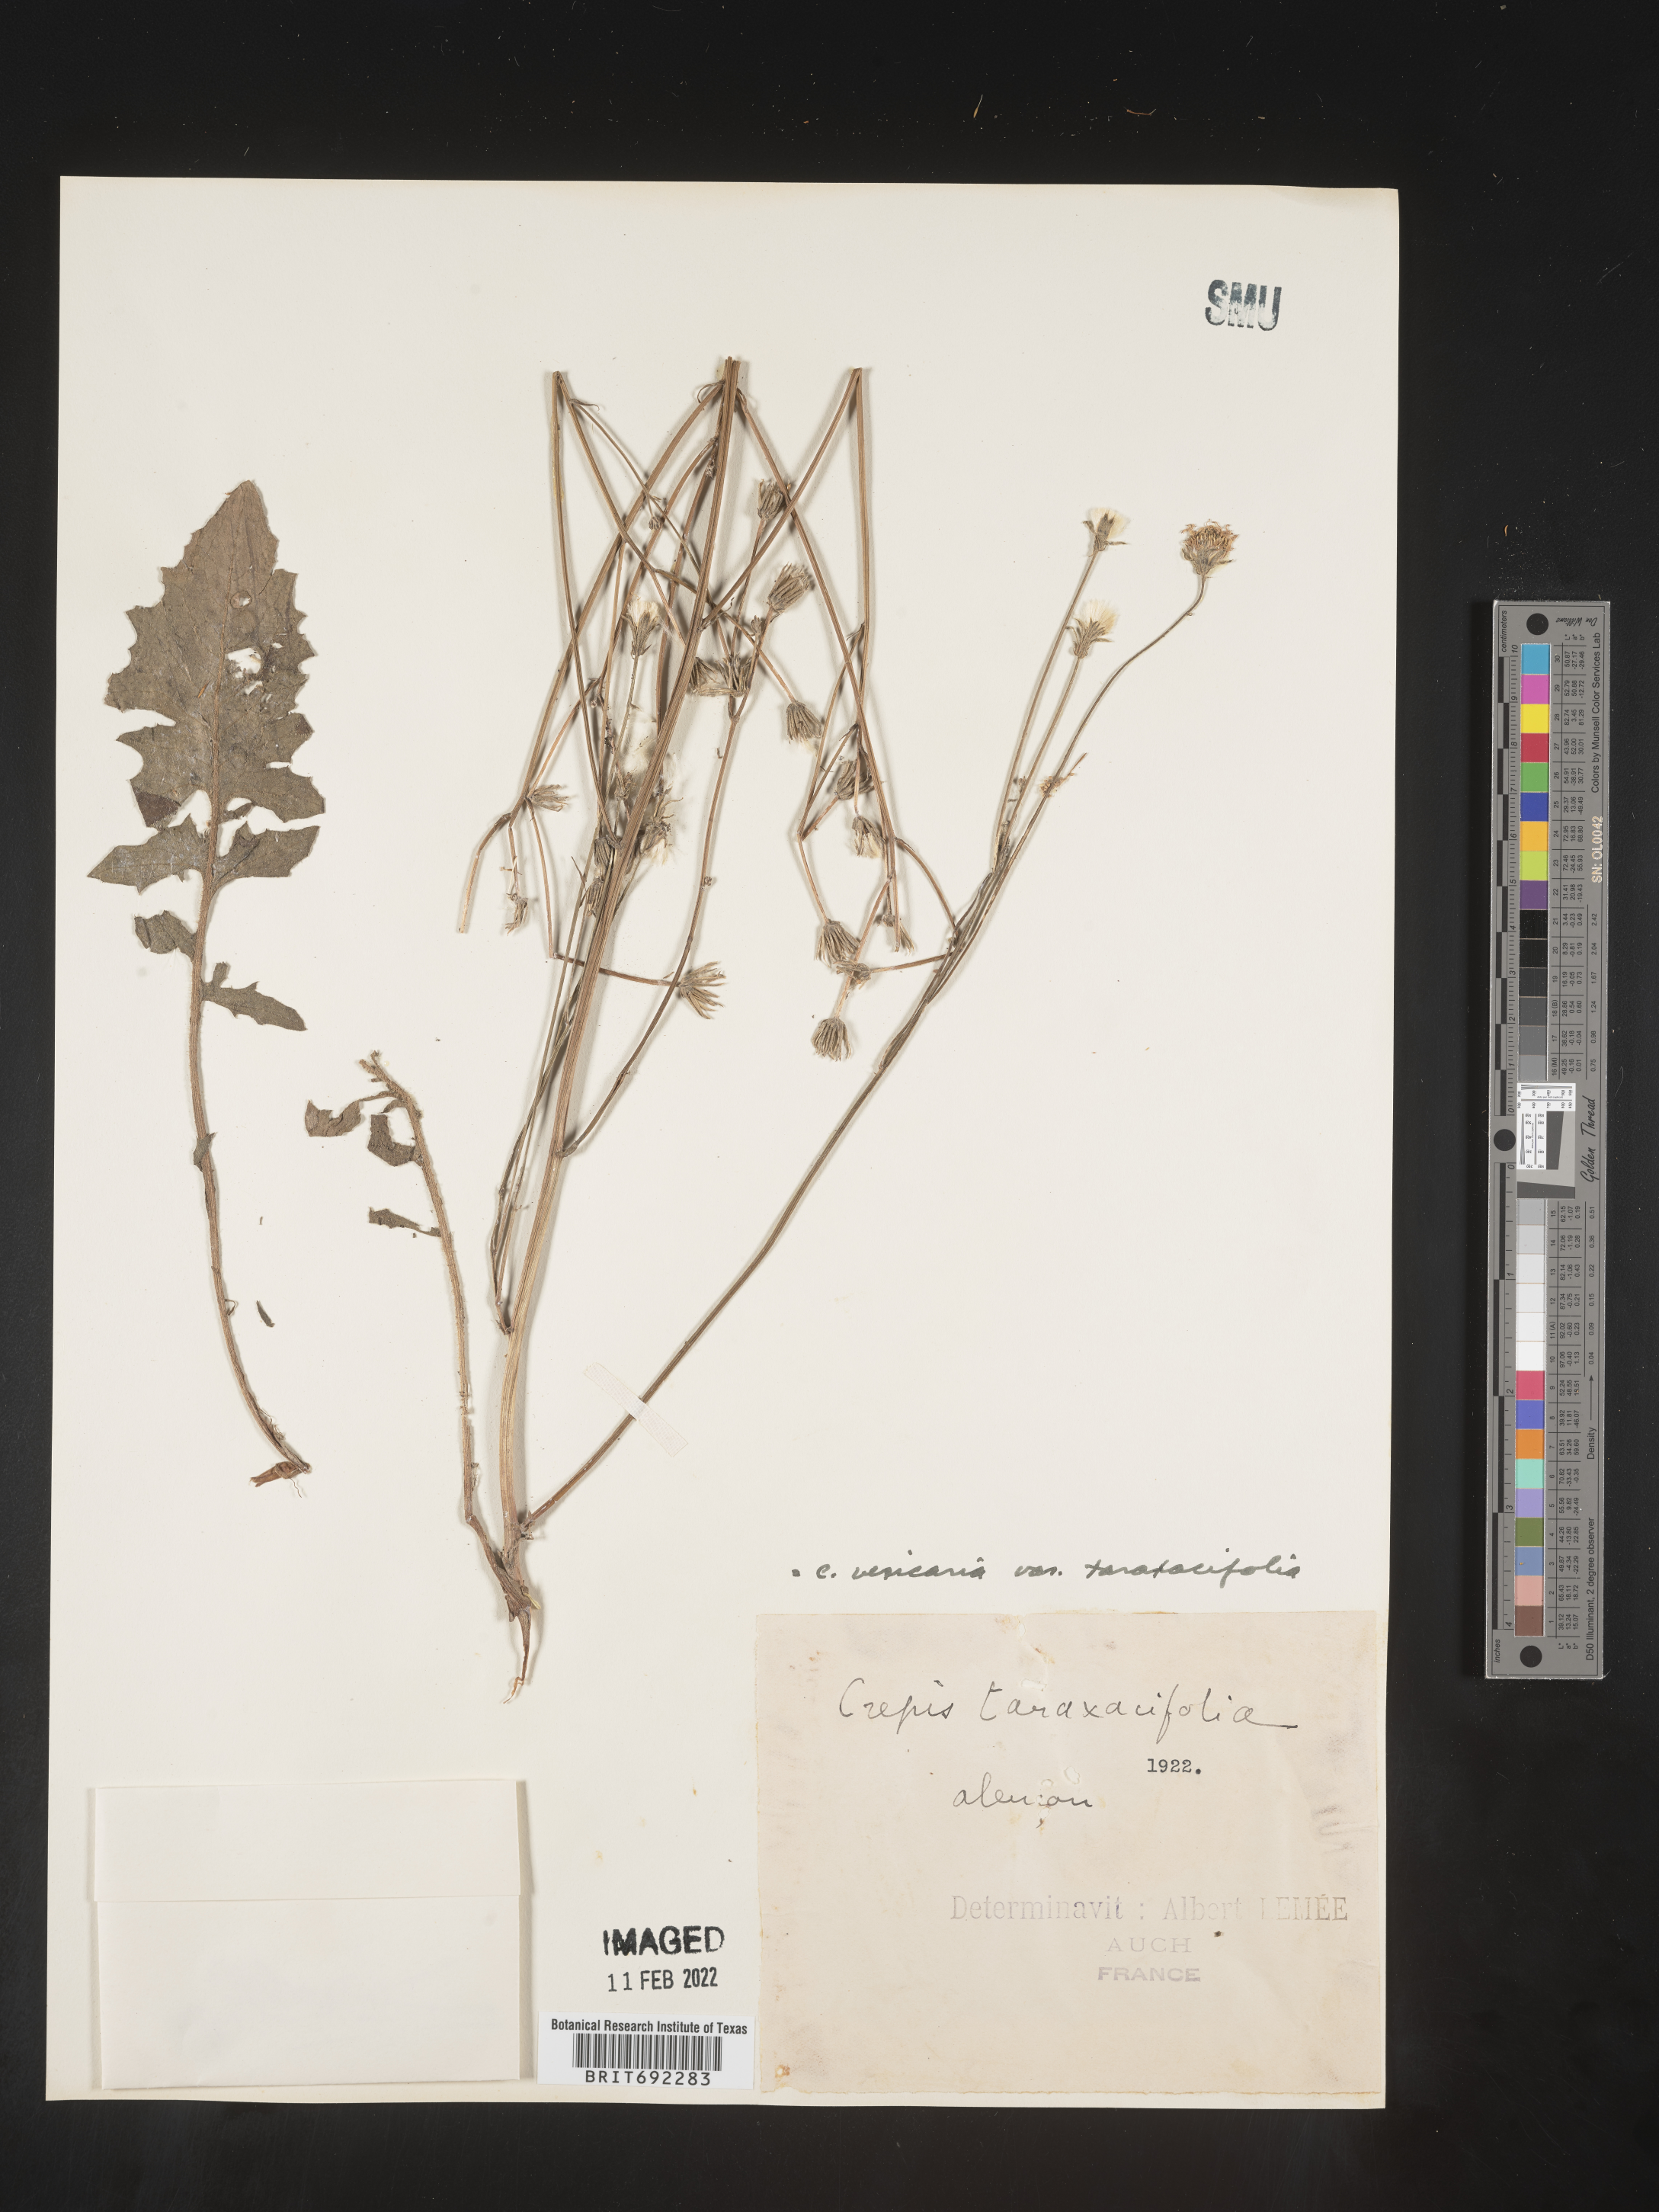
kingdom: Plantae
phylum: Tracheophyta
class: Magnoliopsida
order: Asterales
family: Asteraceae
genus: Crepis
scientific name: Crepis
